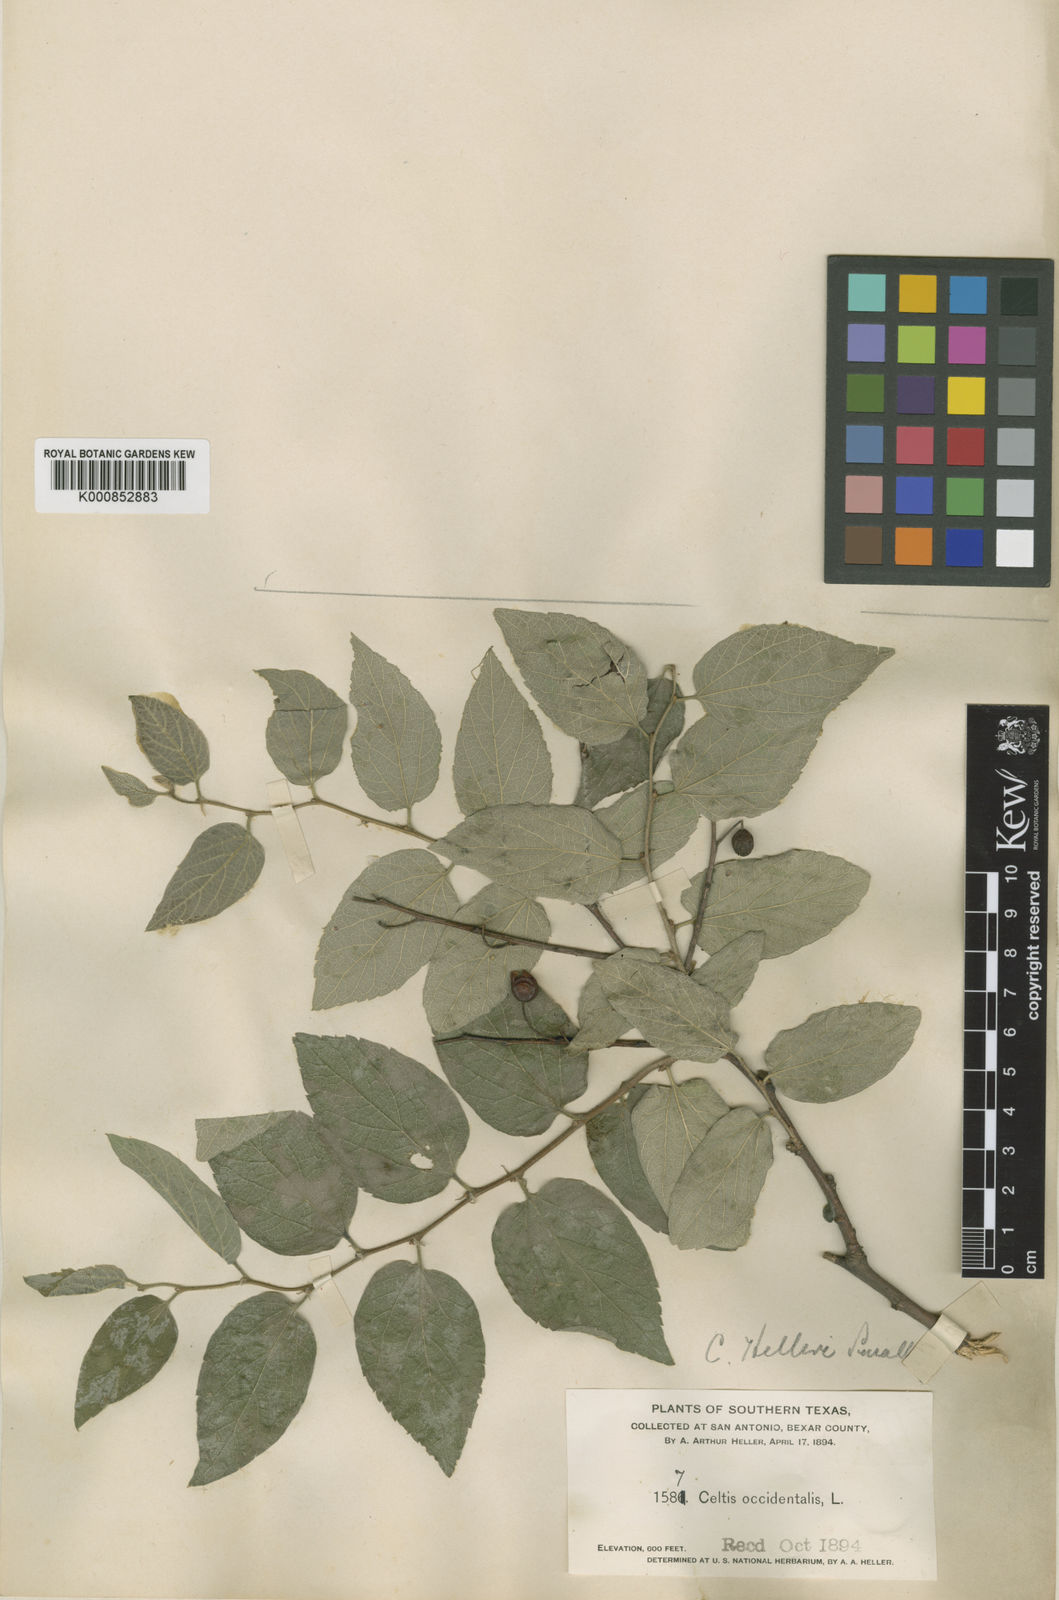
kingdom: Plantae
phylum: Tracheophyta
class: Magnoliopsida
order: Rosales
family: Cannabaceae
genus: Celtis
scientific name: Celtis reticulata
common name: Netleaf hackberry
